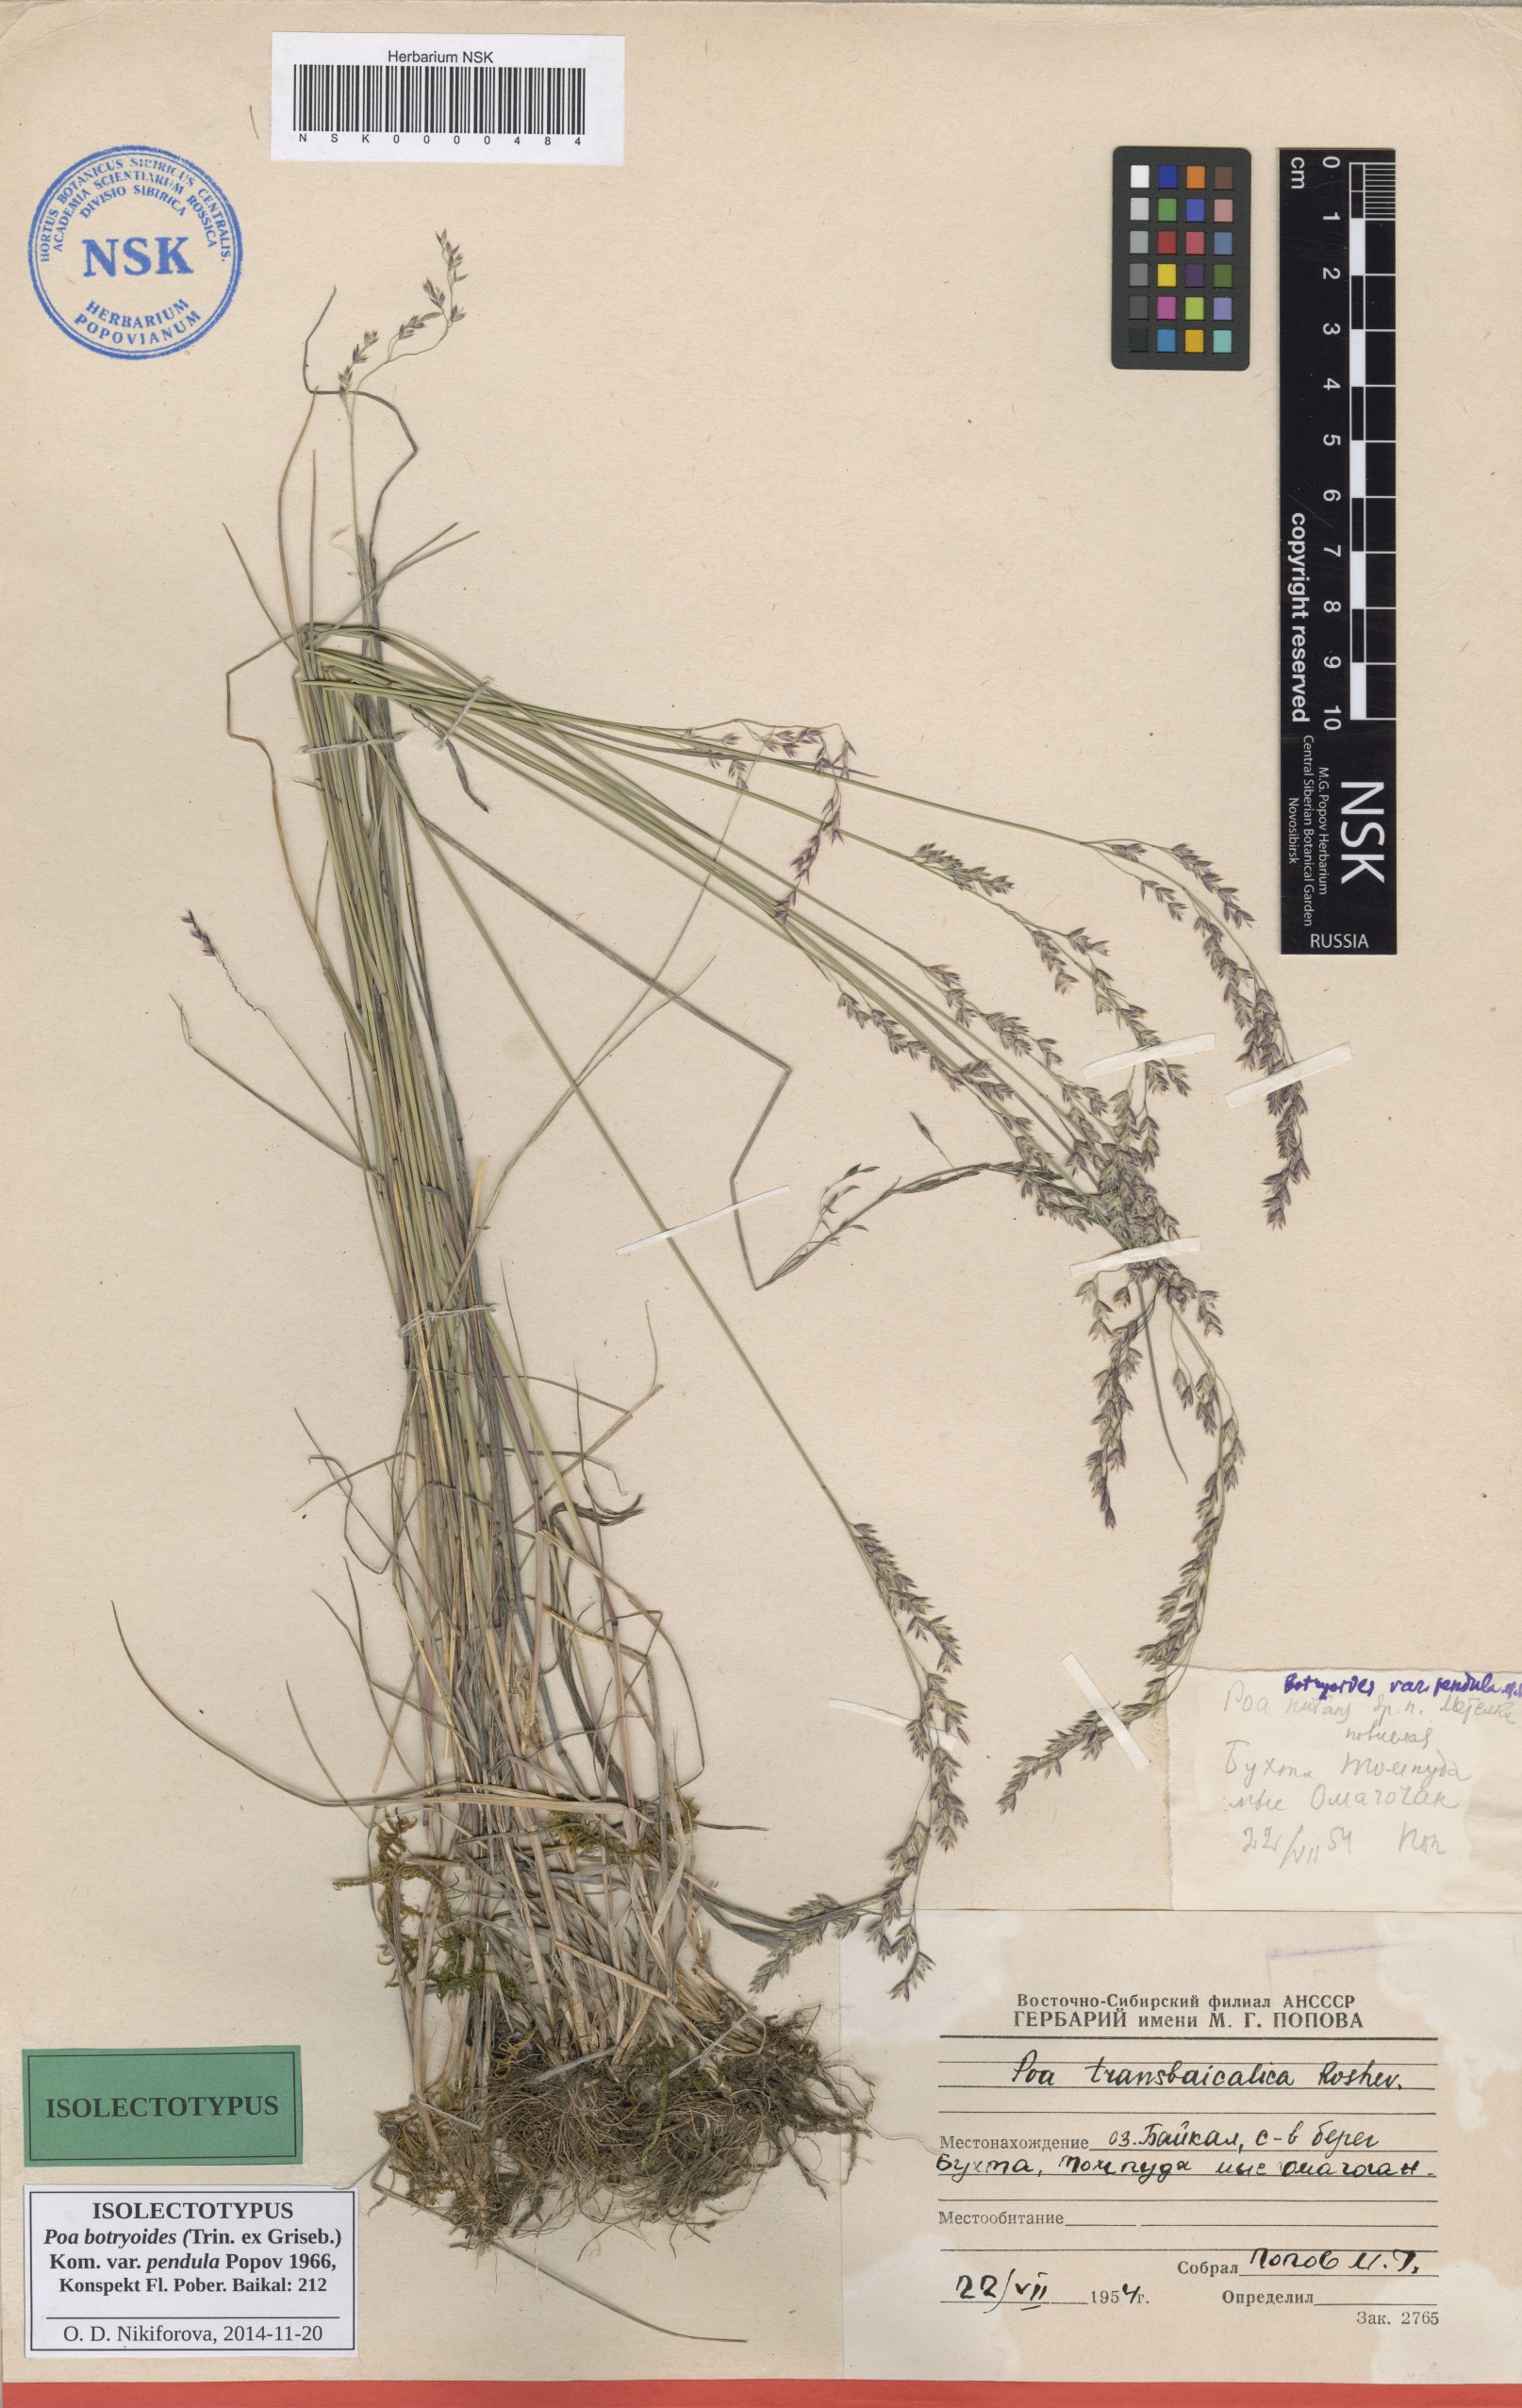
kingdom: Plantae
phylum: Tracheophyta
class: Liliopsida
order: Poales
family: Poaceae
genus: Poa
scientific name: Poa attenuata
